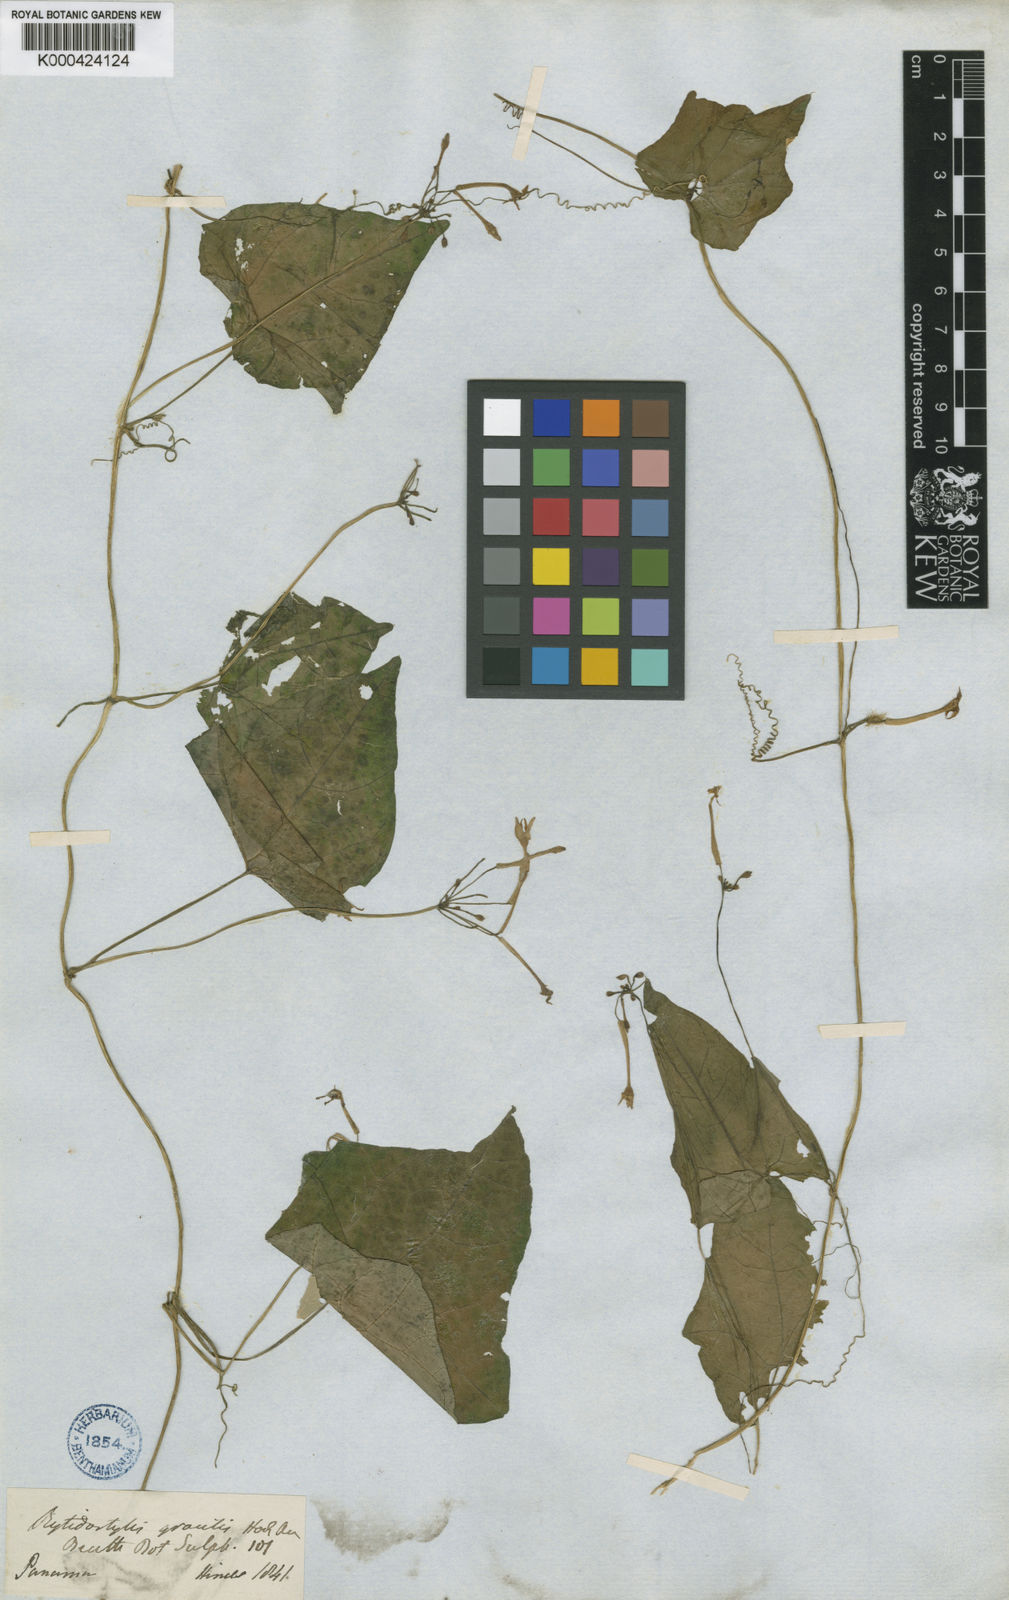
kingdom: Plantae
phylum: Tracheophyta
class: Magnoliopsida
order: Cucurbitales
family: Cucurbitaceae
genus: Cyclanthera
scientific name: Cyclanthera filiformis
